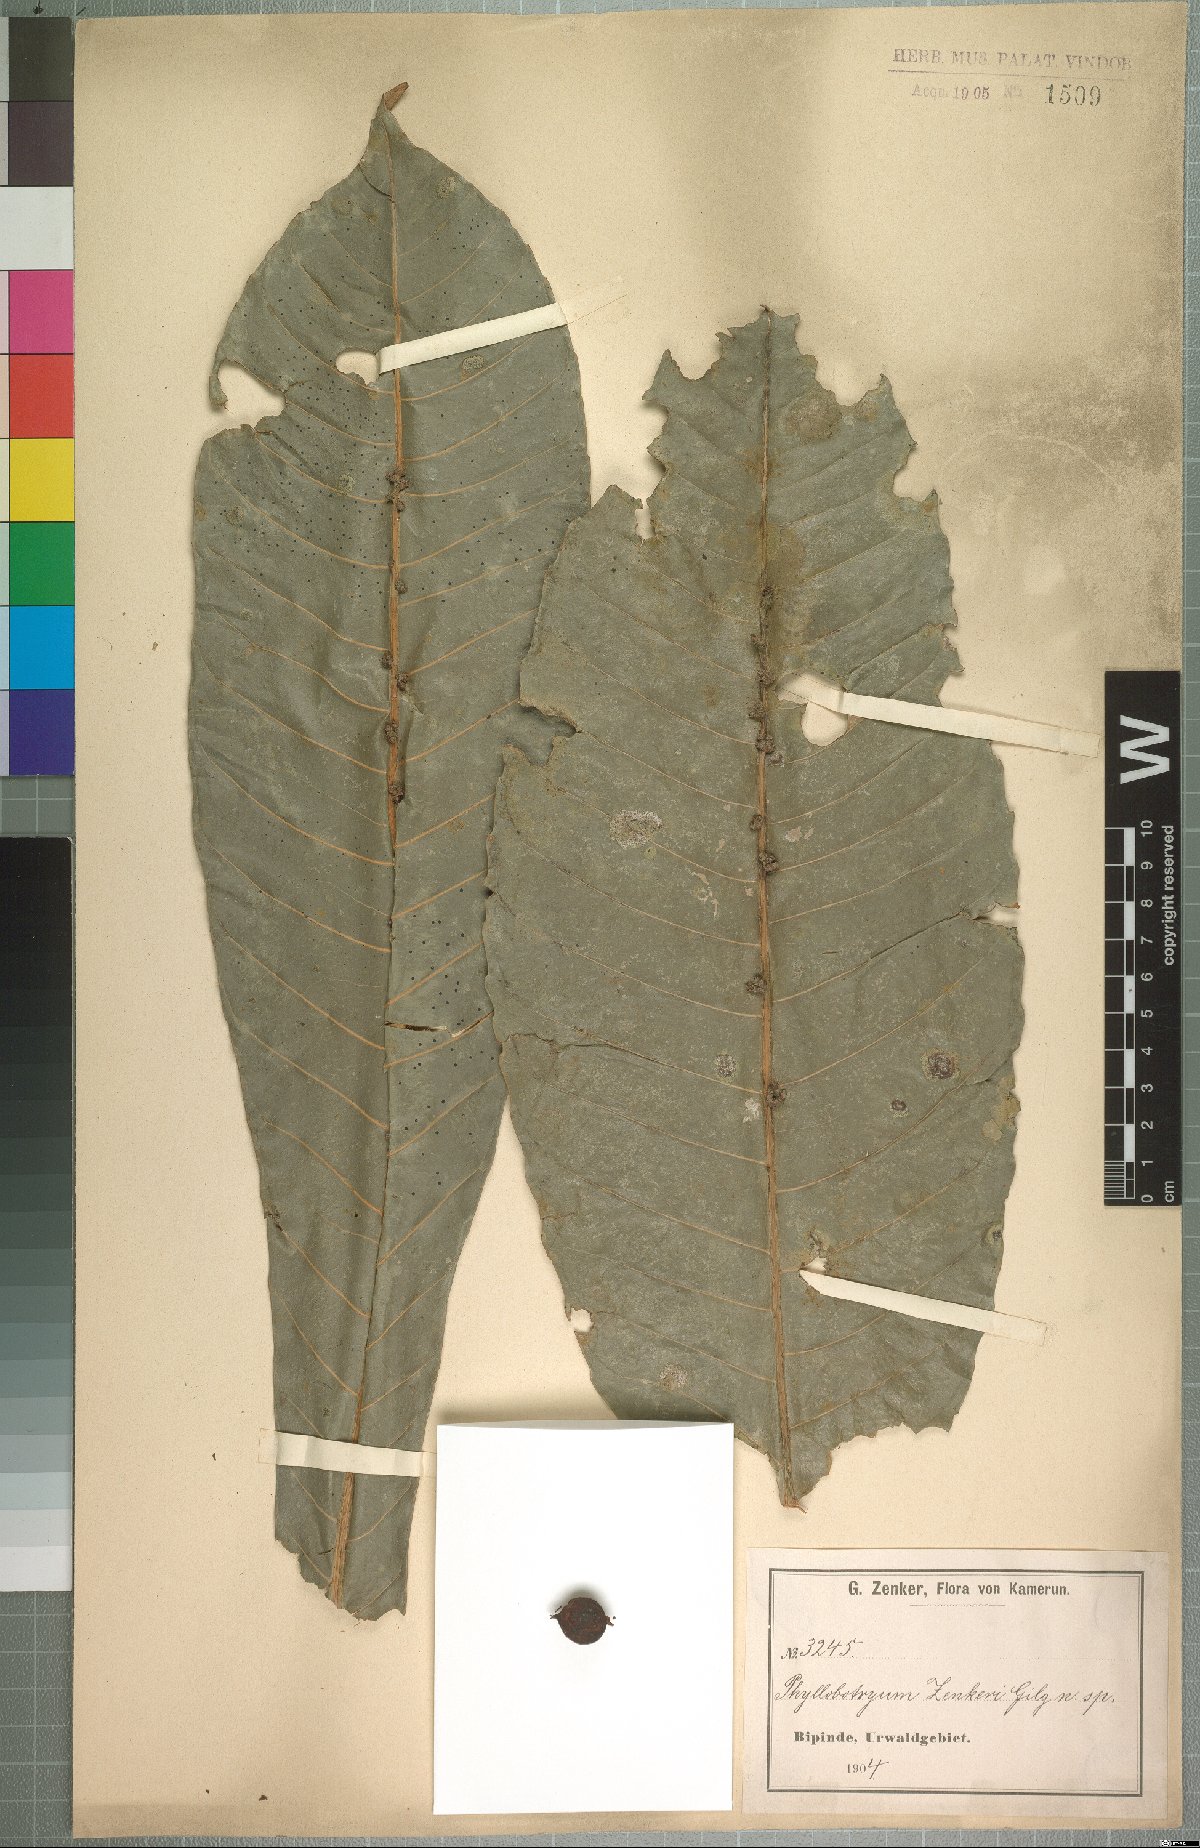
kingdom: Plantae
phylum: Tracheophyta
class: Magnoliopsida
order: Malpighiales
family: Salicaceae
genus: Phyllobotryon
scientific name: Phyllobotryon spathulatum
